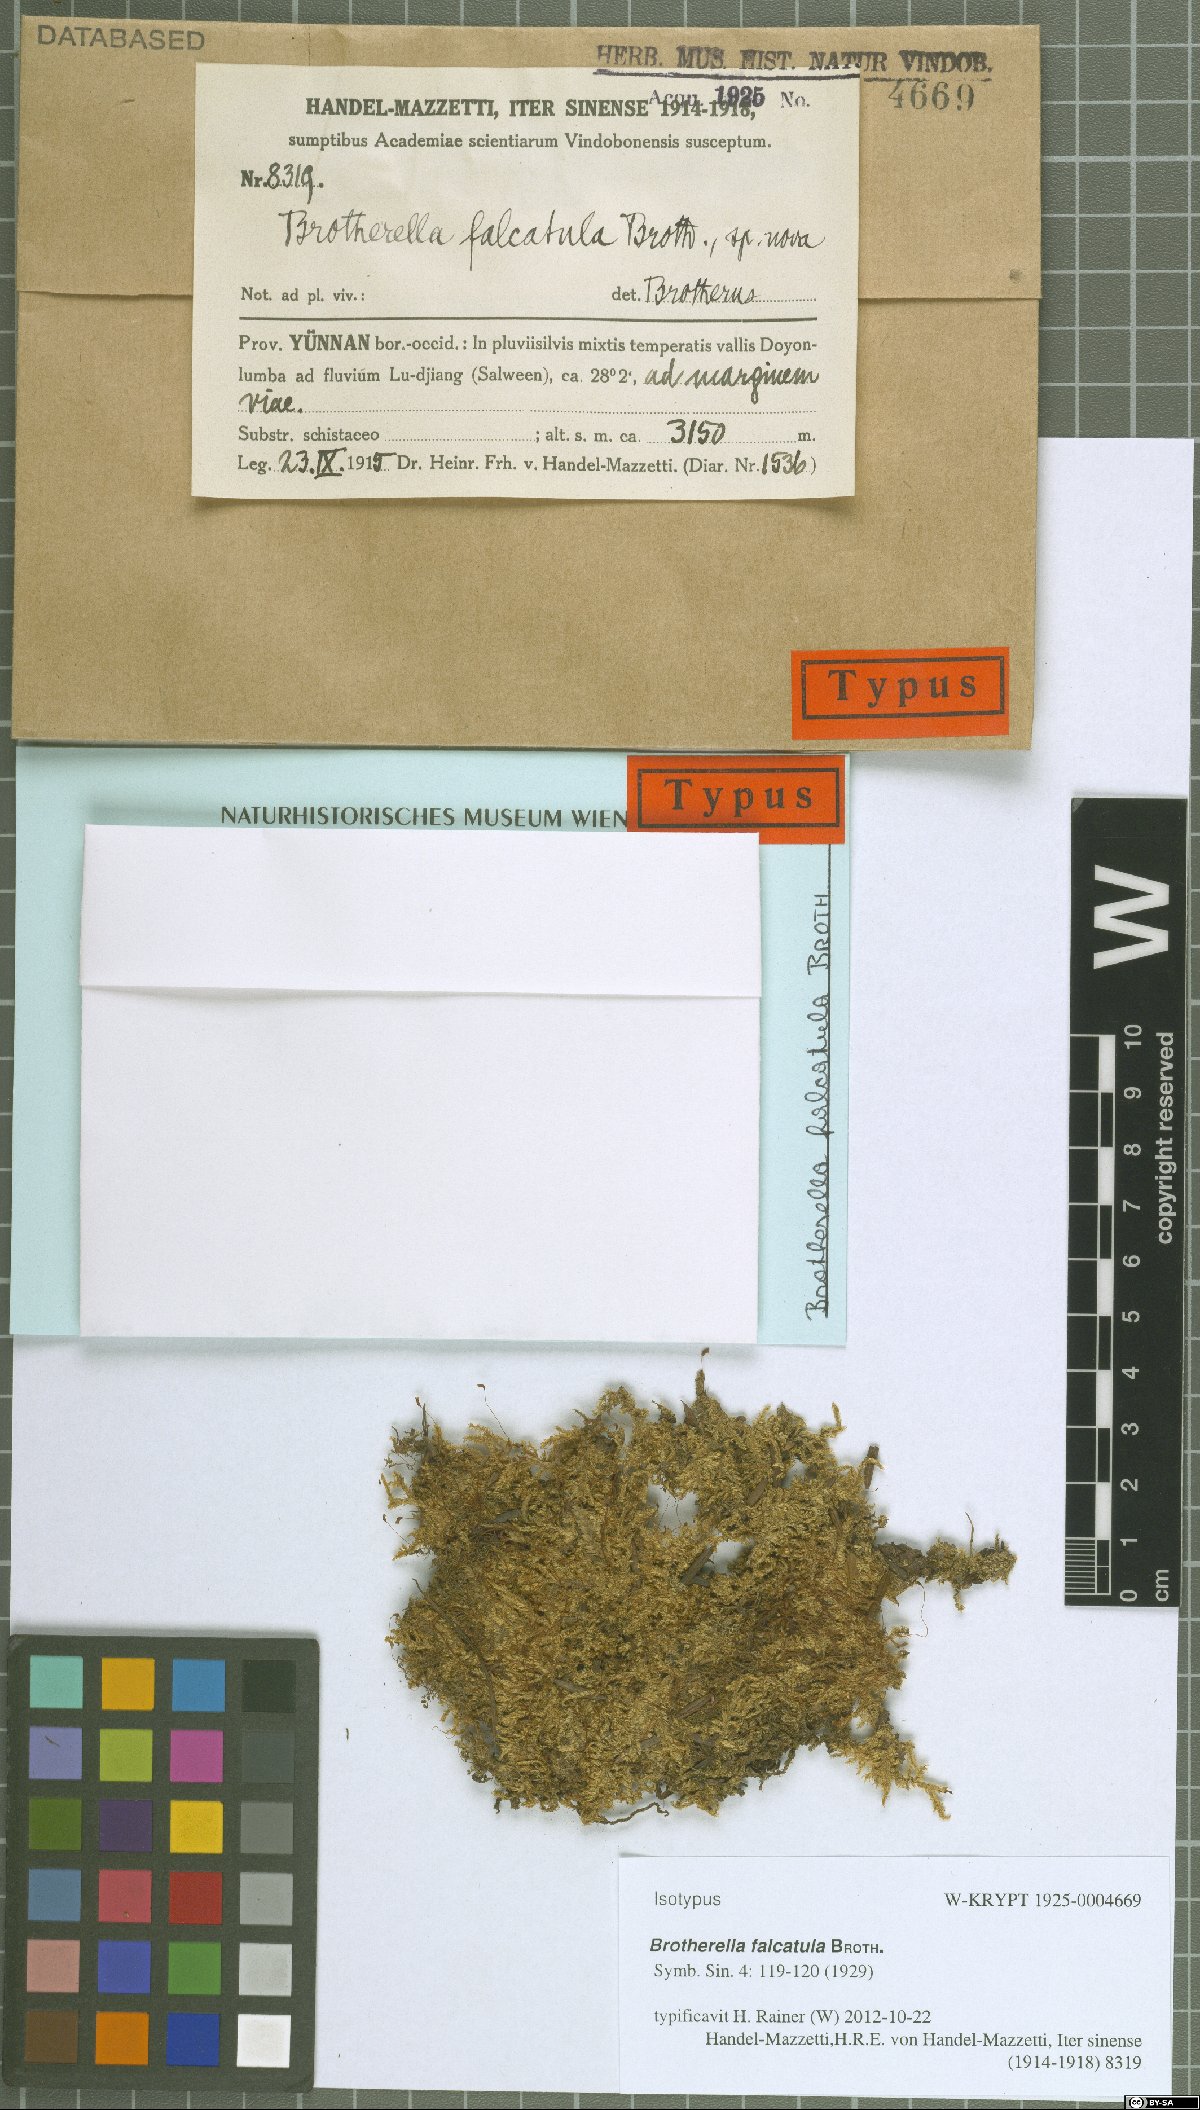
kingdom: Plantae
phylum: Bryophyta
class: Bryopsida
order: Hypnales
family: Pylaisiadelphaceae
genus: Brotherella
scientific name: Brotherella henonii
